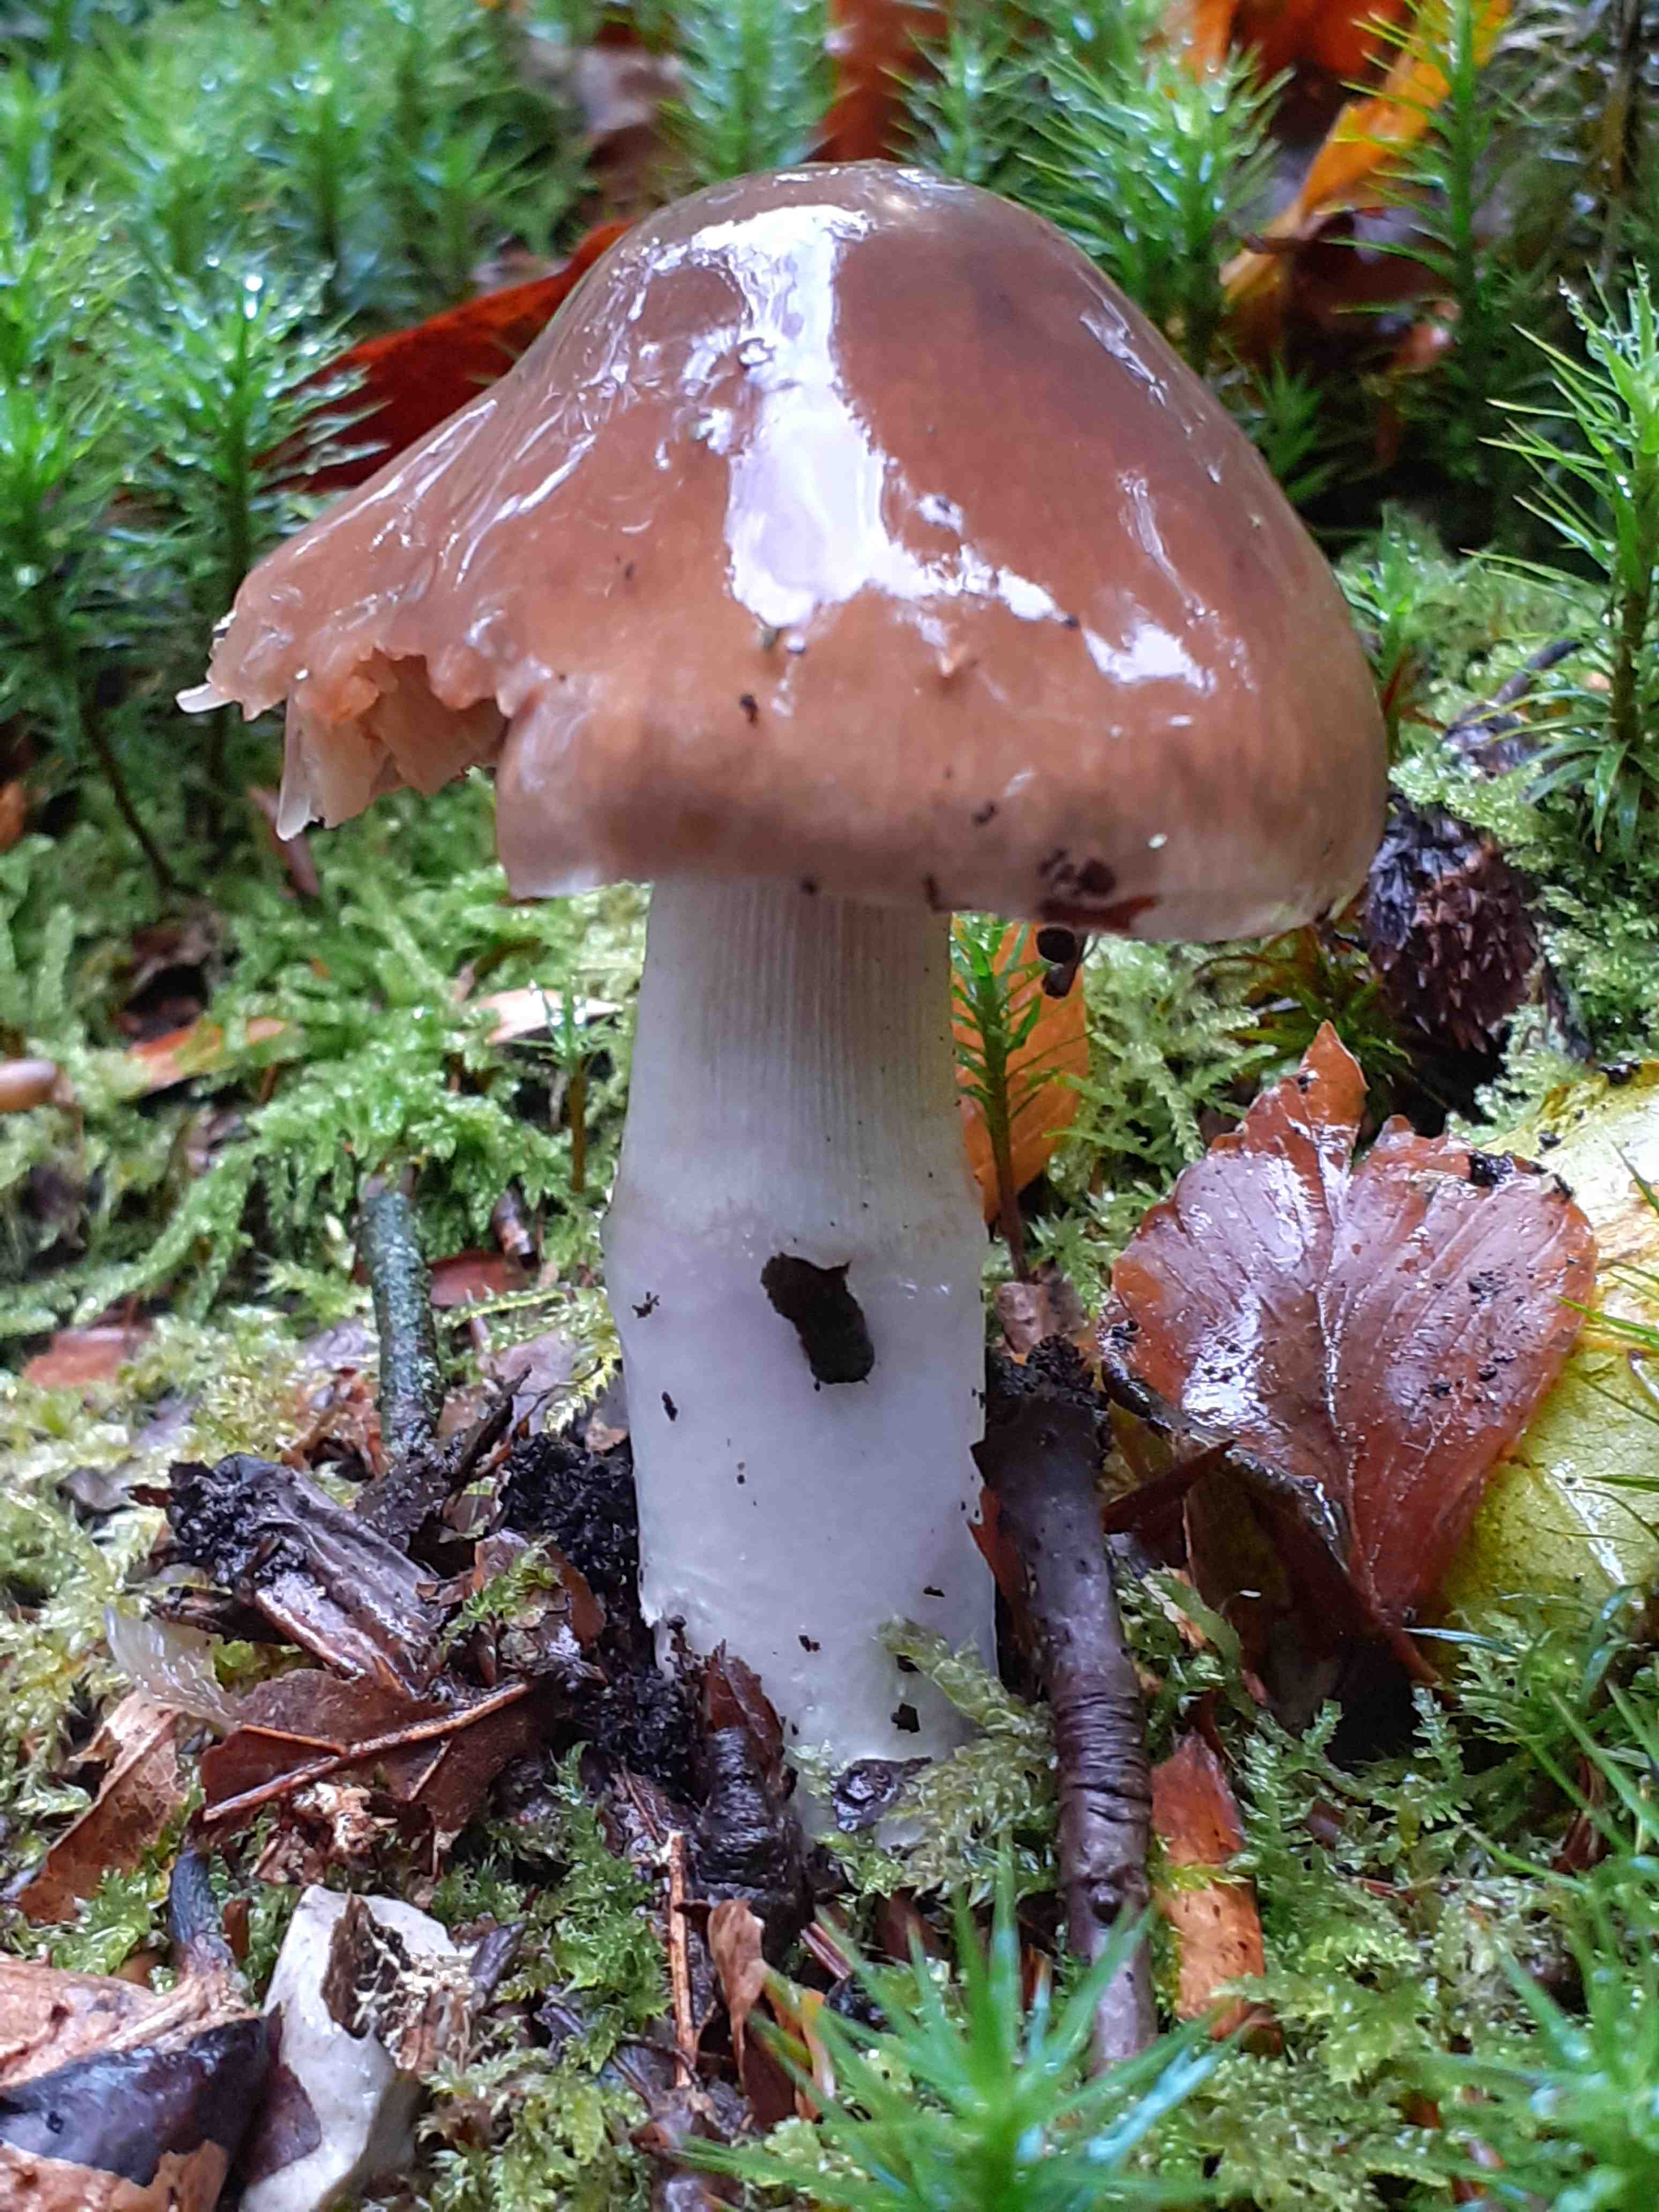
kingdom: Fungi
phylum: Basidiomycota
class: Agaricomycetes
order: Agaricales
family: Cortinariaceae
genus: Cortinarius
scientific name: Cortinarius elatior
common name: høj slørhat
